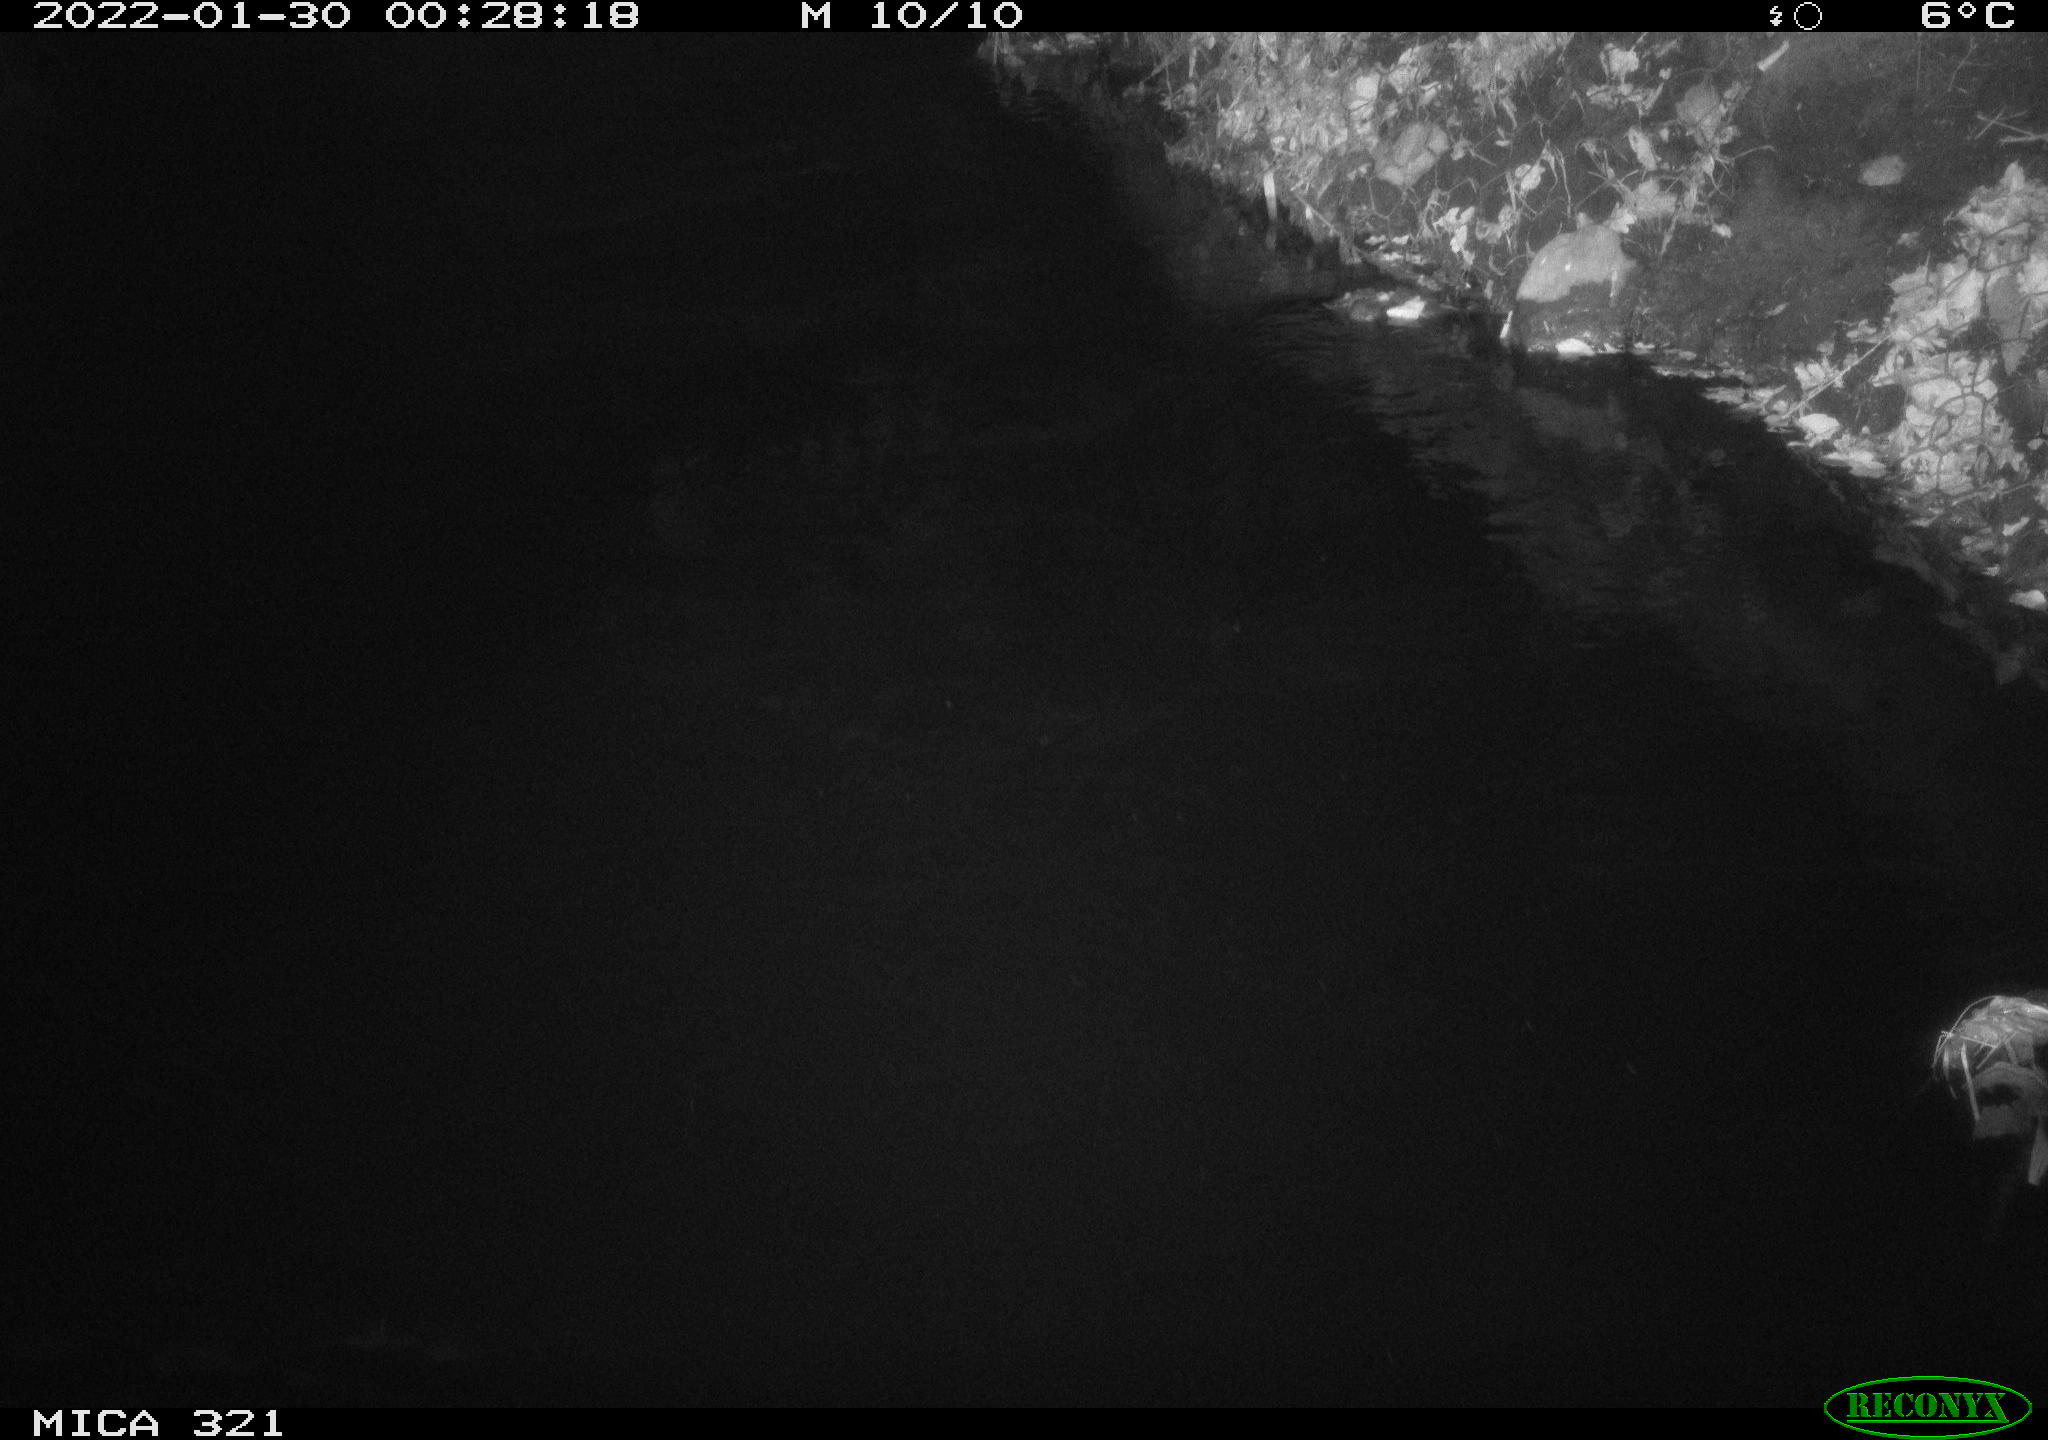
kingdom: Animalia
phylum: Chordata
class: Mammalia
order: Rodentia
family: Muridae
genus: Rattus
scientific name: Rattus norvegicus
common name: Brown rat
